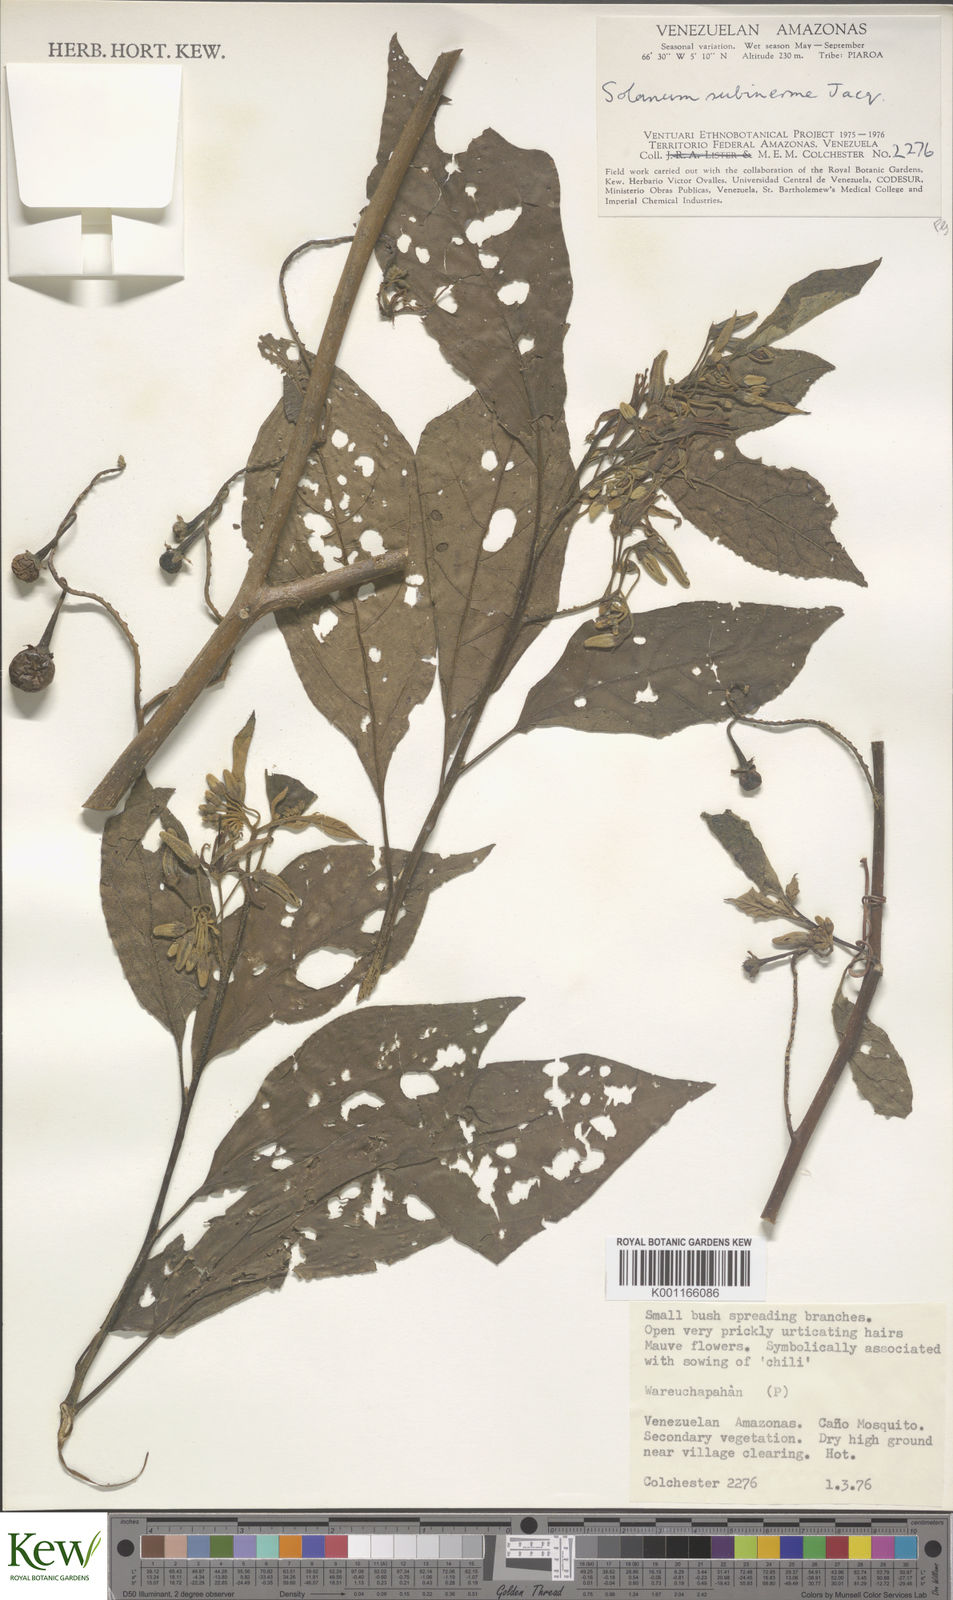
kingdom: Plantae
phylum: Tracheophyta
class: Magnoliopsida
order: Solanales
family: Solanaceae
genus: Solanum
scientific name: Solanum subinerme
